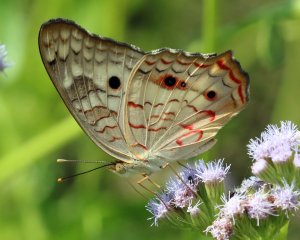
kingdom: Animalia
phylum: Arthropoda
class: Insecta
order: Lepidoptera
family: Nymphalidae
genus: Anartia
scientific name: Anartia jatrophae
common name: White Peacock
